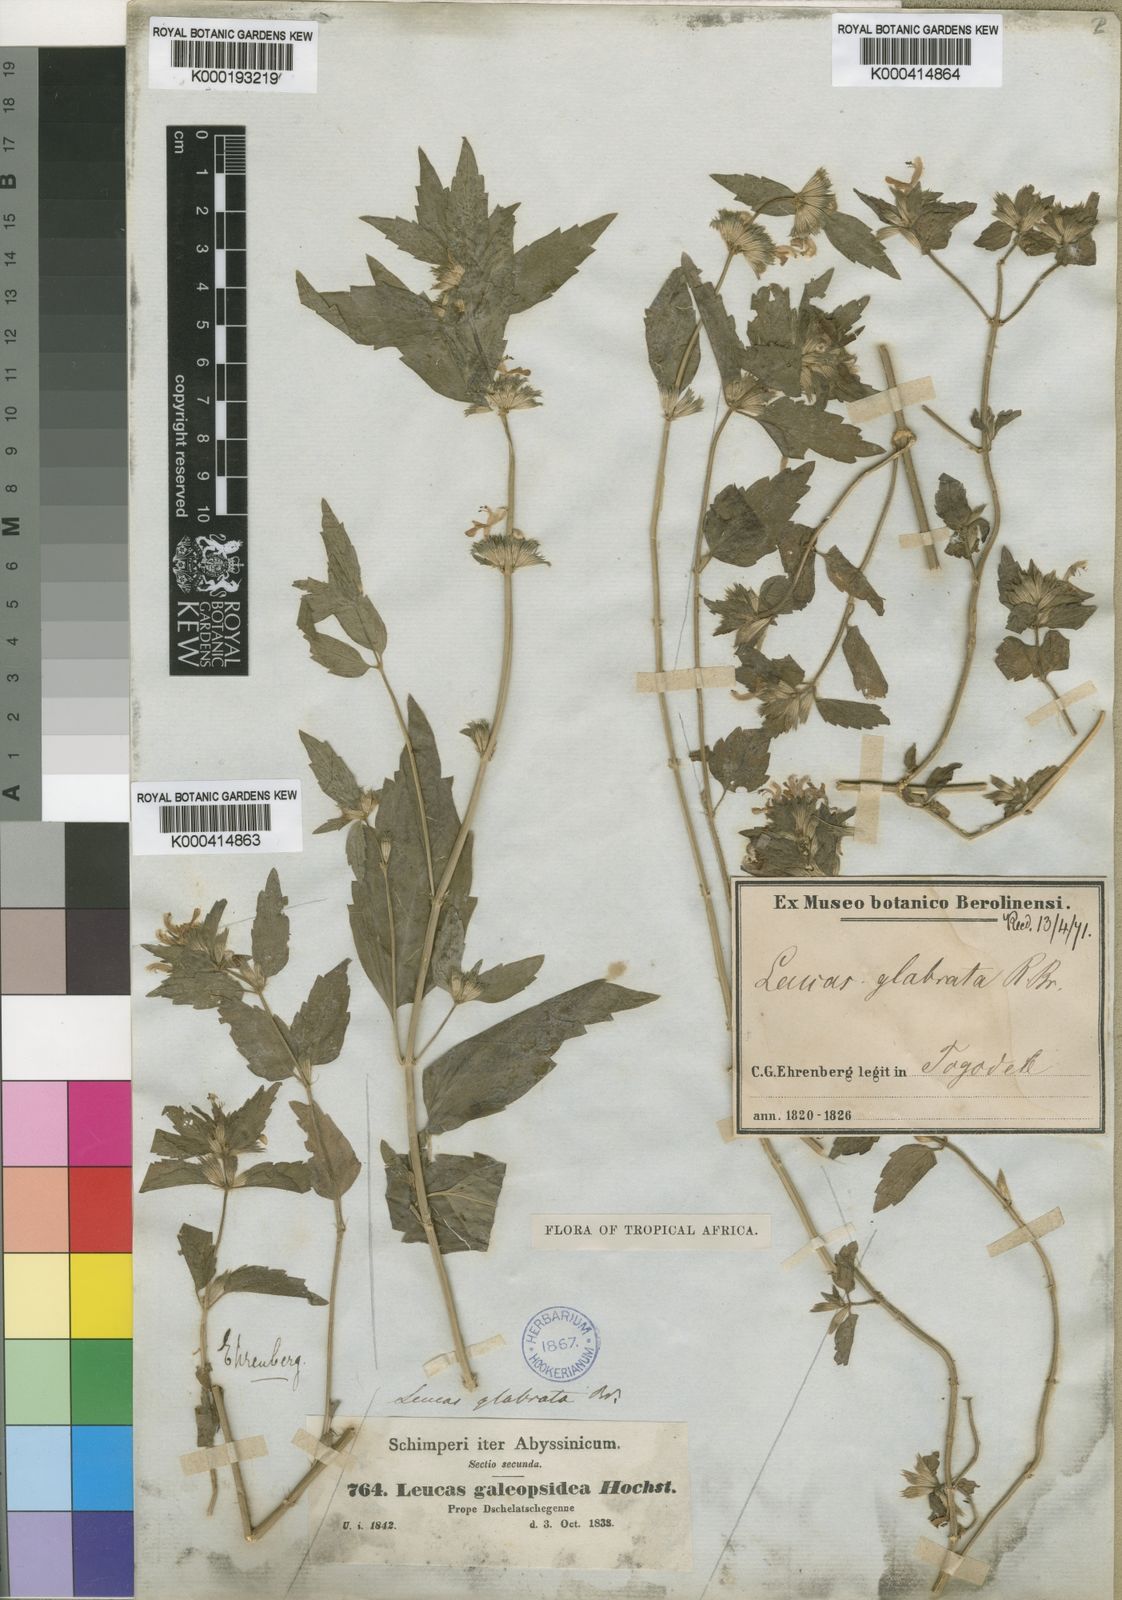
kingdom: Plantae
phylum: Tracheophyta
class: Magnoliopsida
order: Lamiales
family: Lamiaceae
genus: Leucas
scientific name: Leucas
